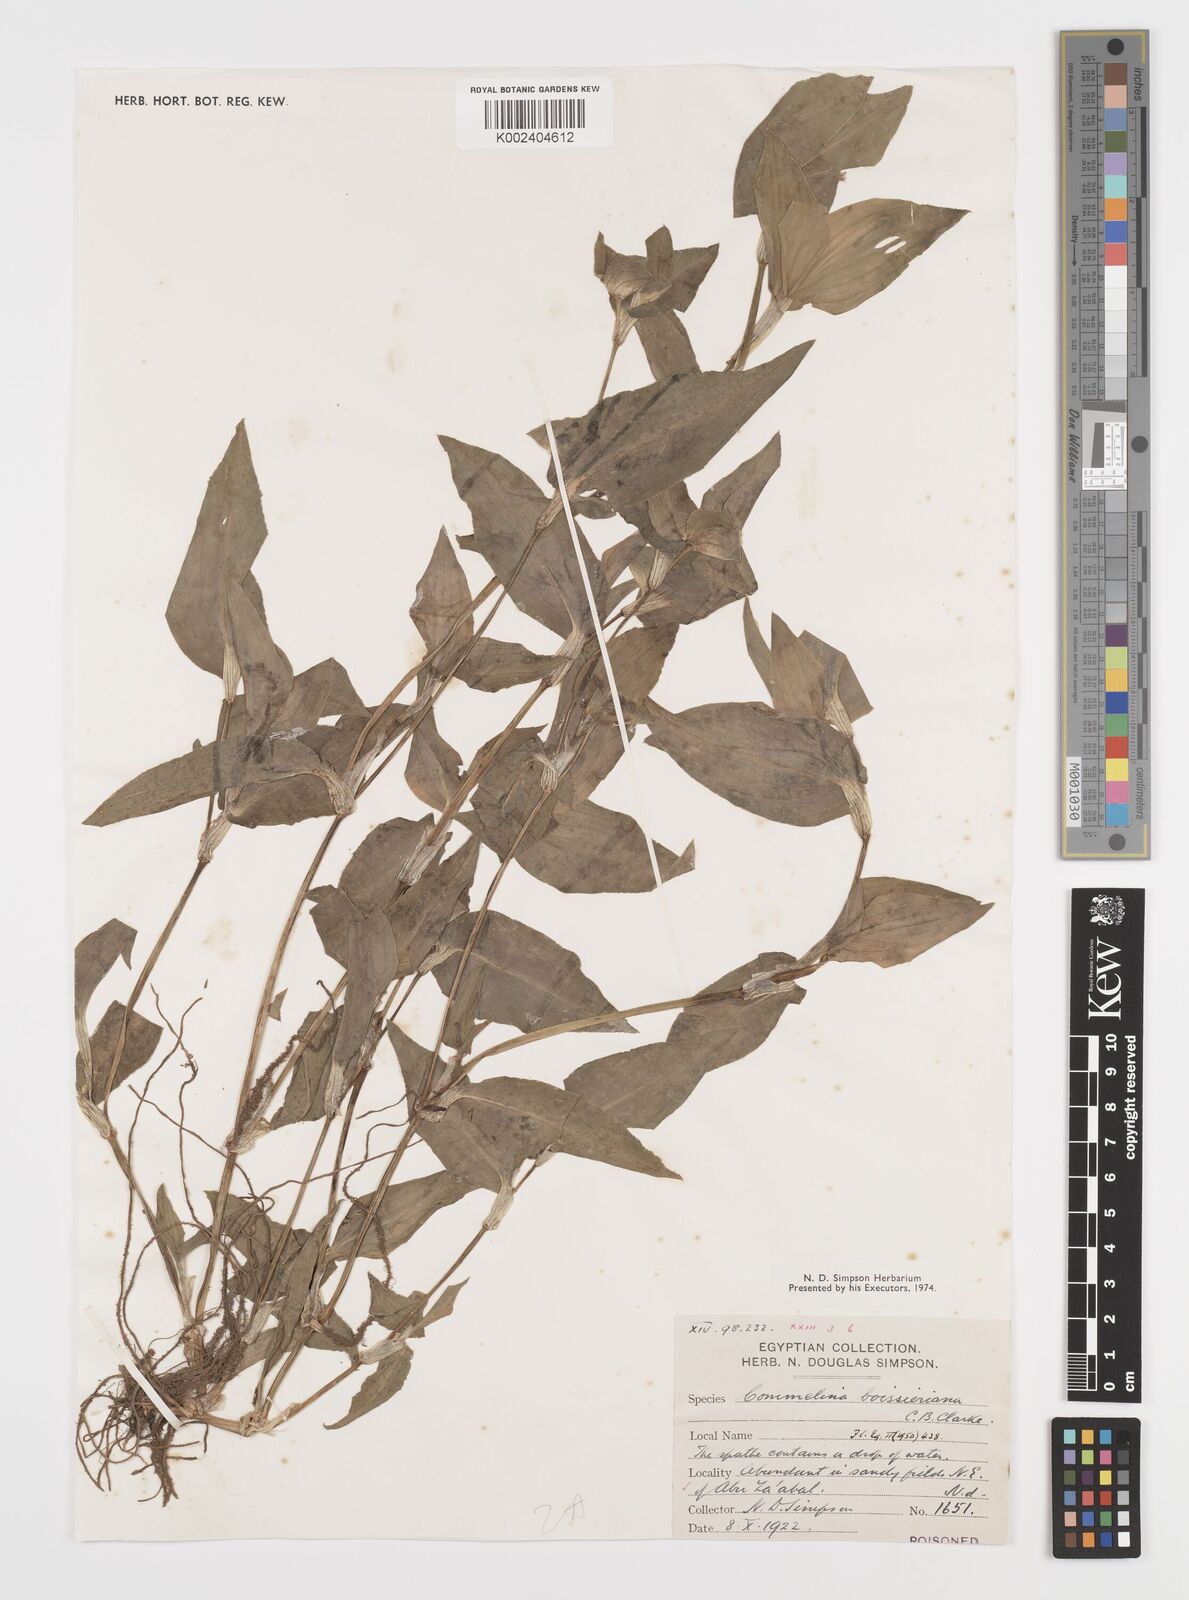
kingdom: Plantae
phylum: Tracheophyta
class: Liliopsida
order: Commelinales
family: Commelinaceae
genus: Commelina
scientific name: Commelina boissieriana
